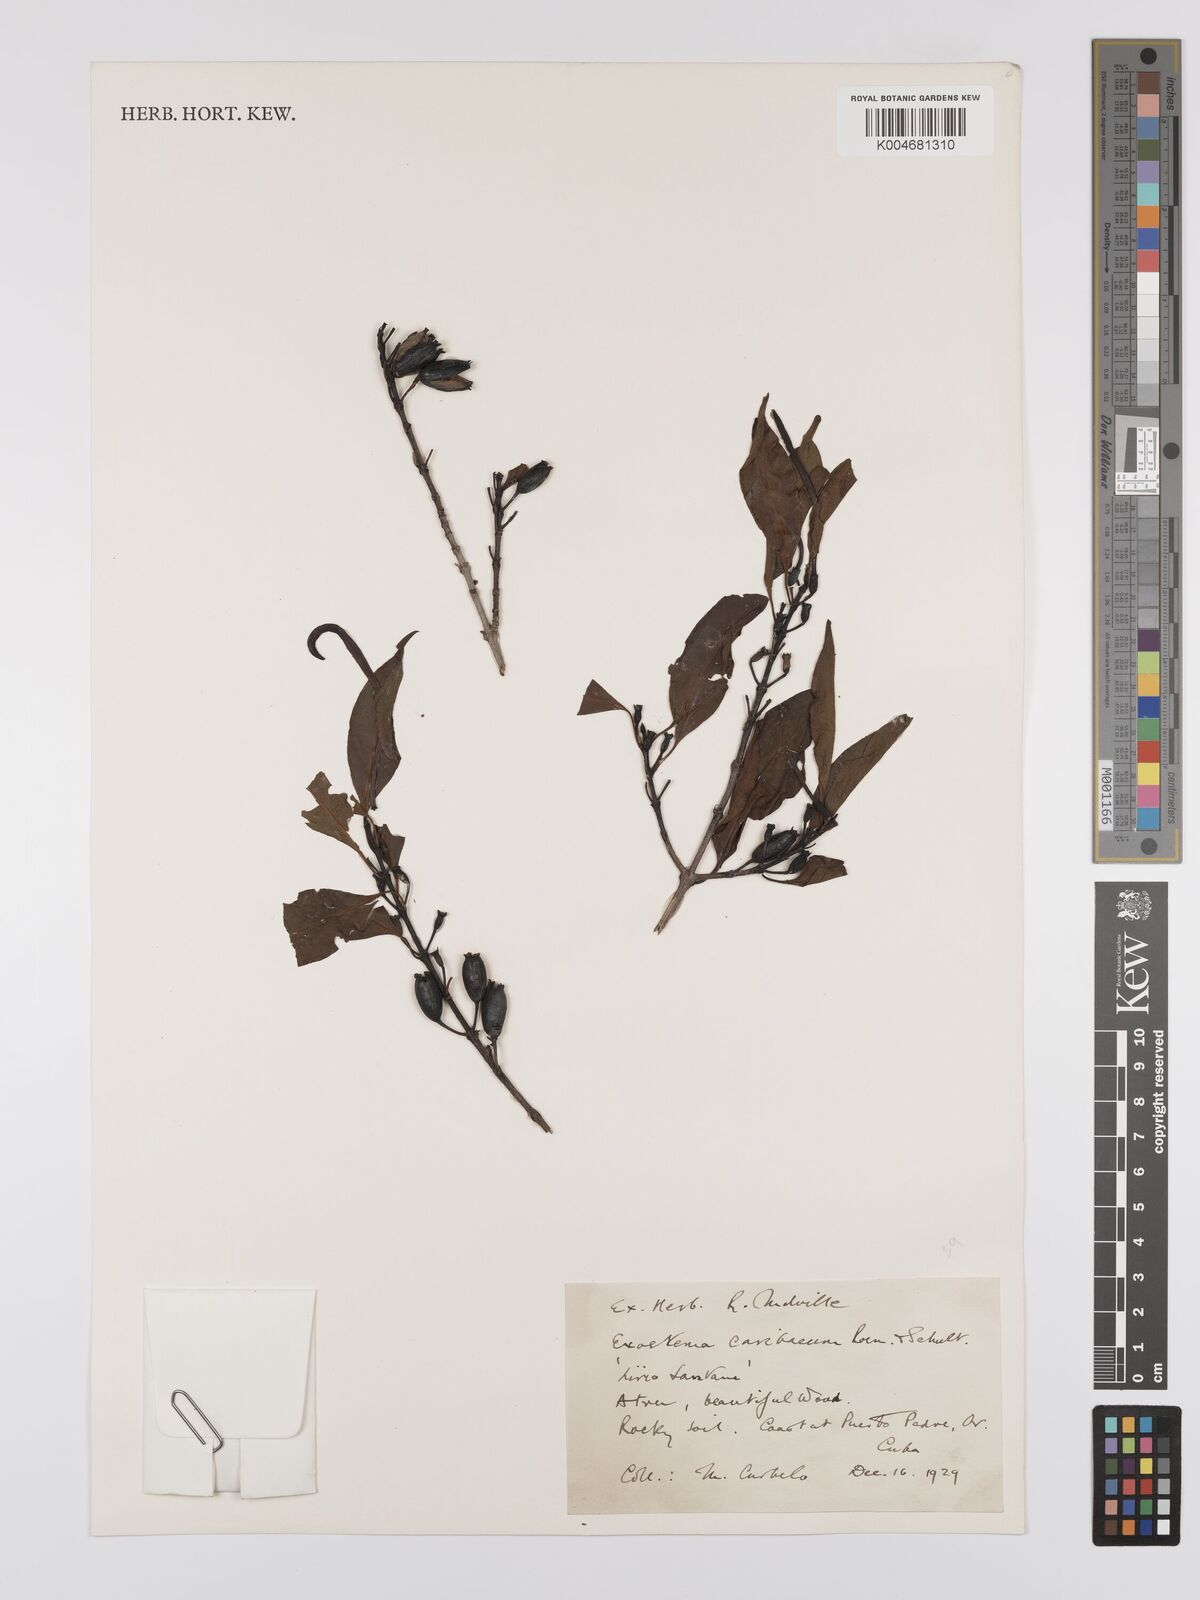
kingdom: Plantae
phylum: Tracheophyta
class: Magnoliopsida
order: Gentianales
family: Rubiaceae
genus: Exostema
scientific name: Exostema caribaeum
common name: Princewood
